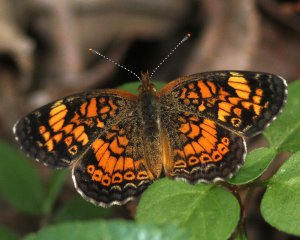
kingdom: Animalia
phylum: Arthropoda
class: Insecta
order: Lepidoptera
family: Nymphalidae
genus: Phyciodes
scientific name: Phyciodes tharos
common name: Pearl Crescent
